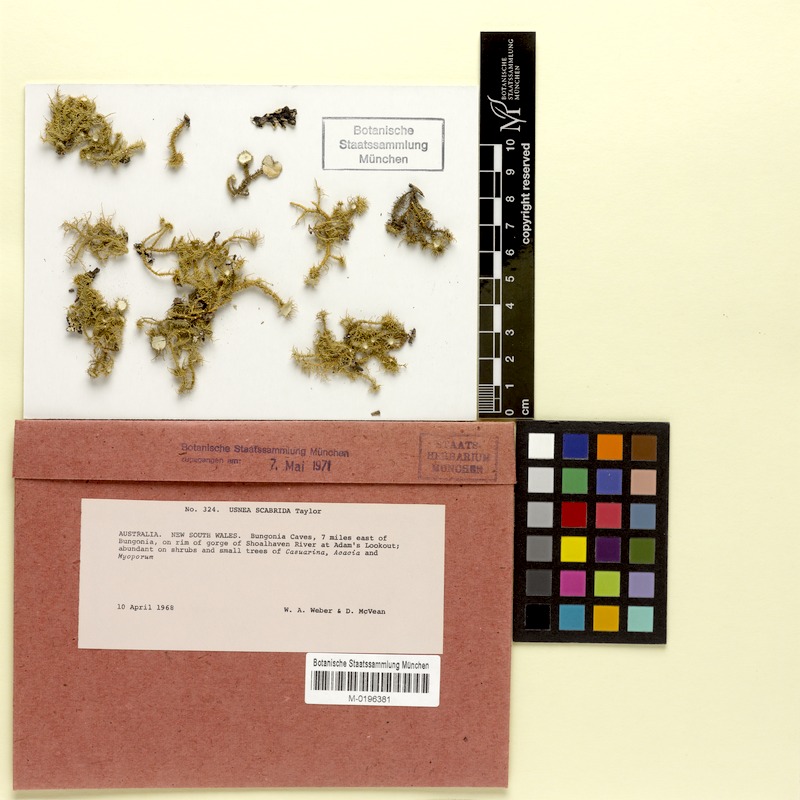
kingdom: Fungi
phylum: Ascomycota
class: Lecanoromycetes
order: Lecanorales
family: Parmeliaceae
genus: Usnea
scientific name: Usnea scabrida
